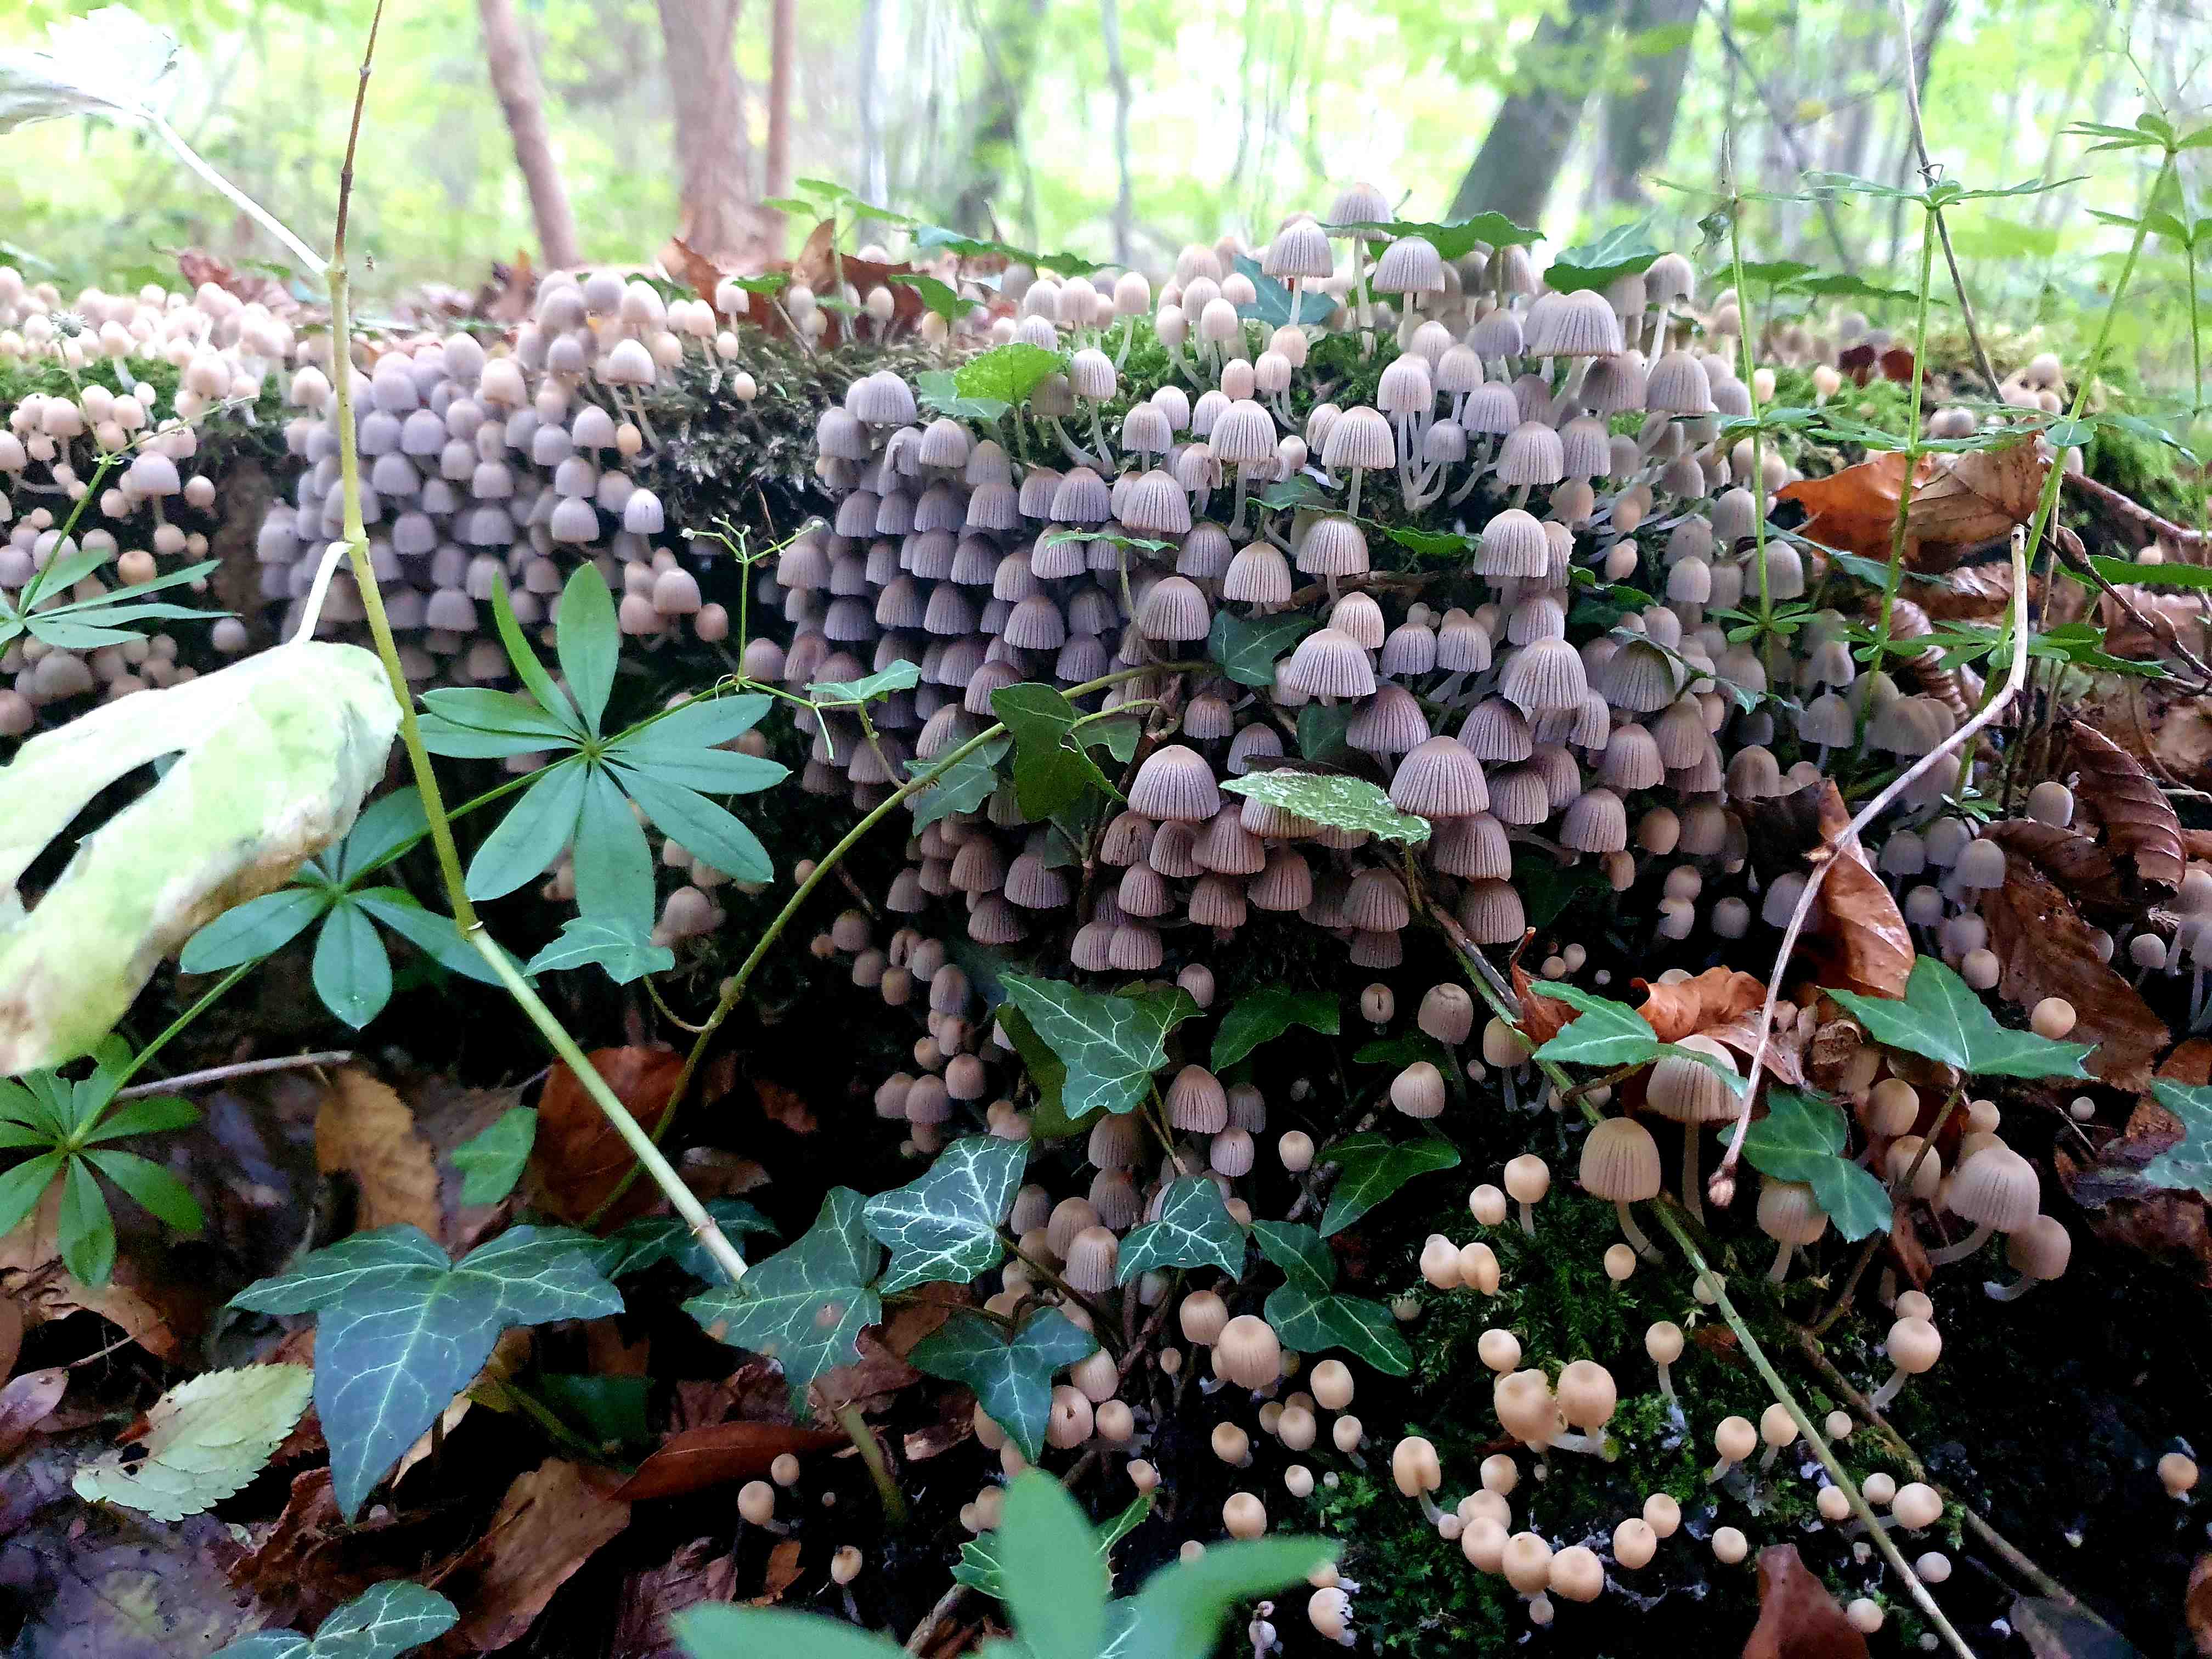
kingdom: Fungi
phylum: Basidiomycota
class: Agaricomycetes
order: Agaricales
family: Psathyrellaceae
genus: Coprinellus
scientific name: Coprinellus disseminatus
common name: bredsået blækhat
